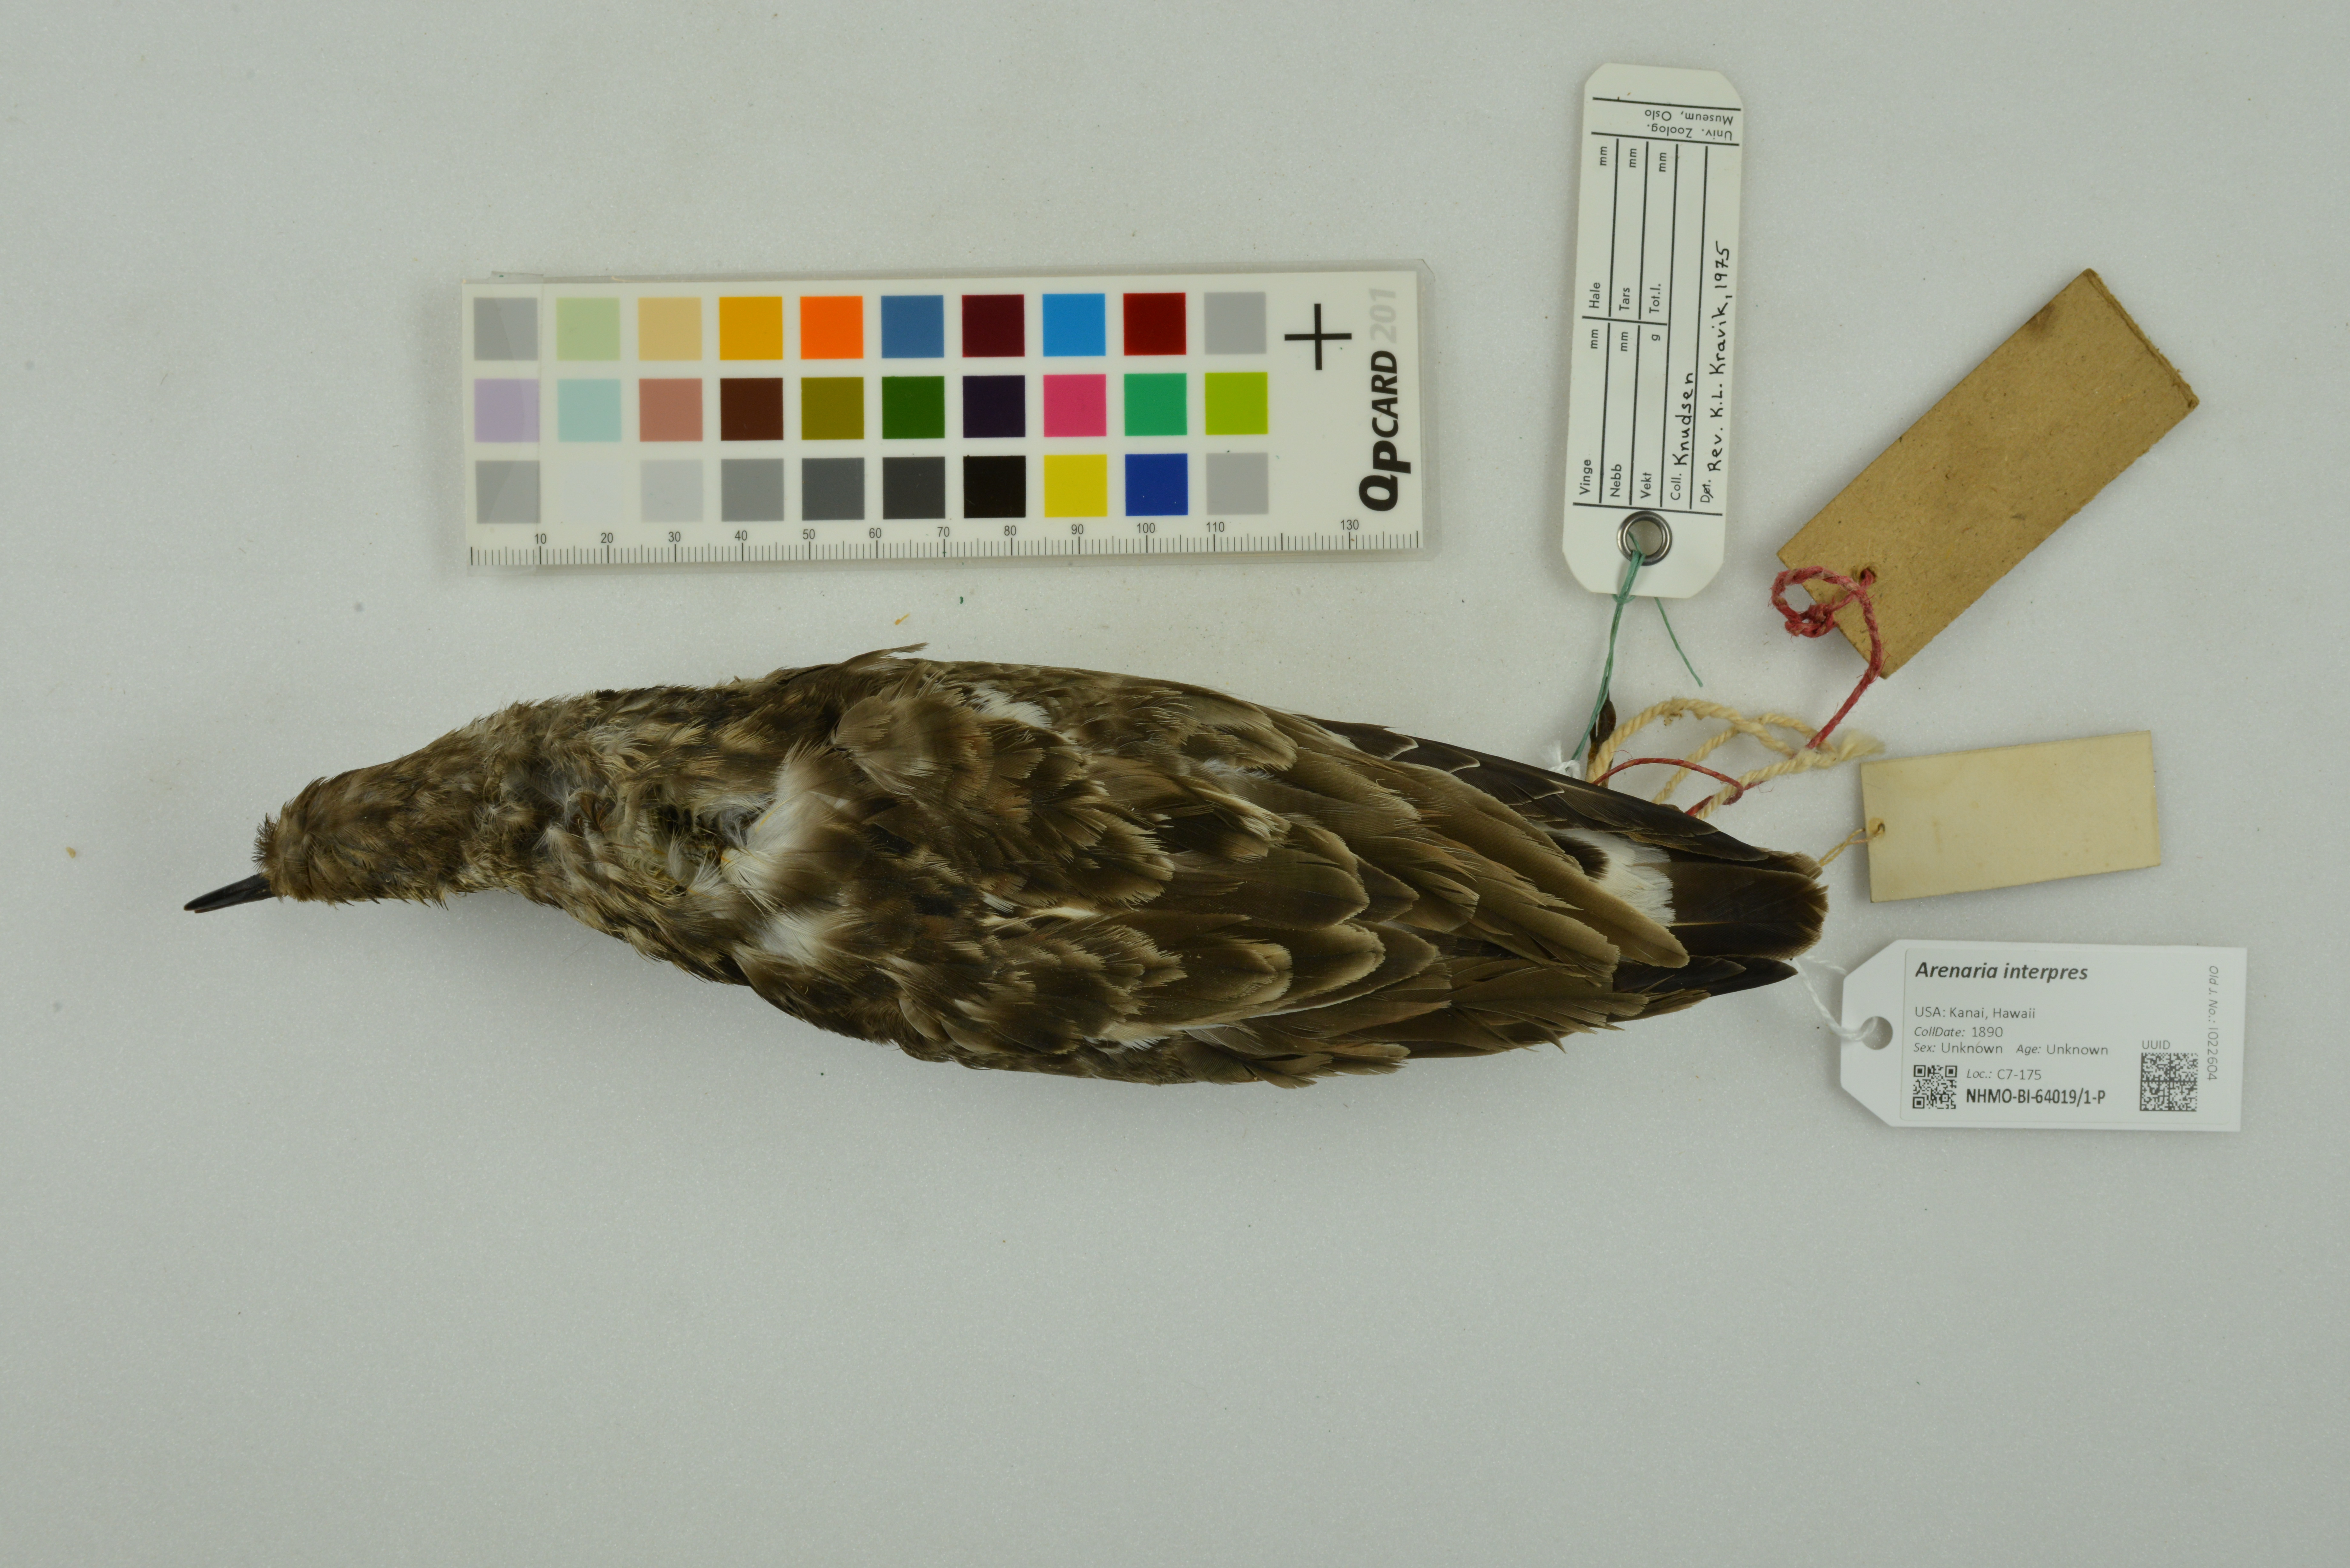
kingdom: Animalia
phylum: Chordata
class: Aves
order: Charadriiformes
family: Scolopacidae
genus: Arenaria
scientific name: Arenaria interpres
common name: Ruddy turnstone
